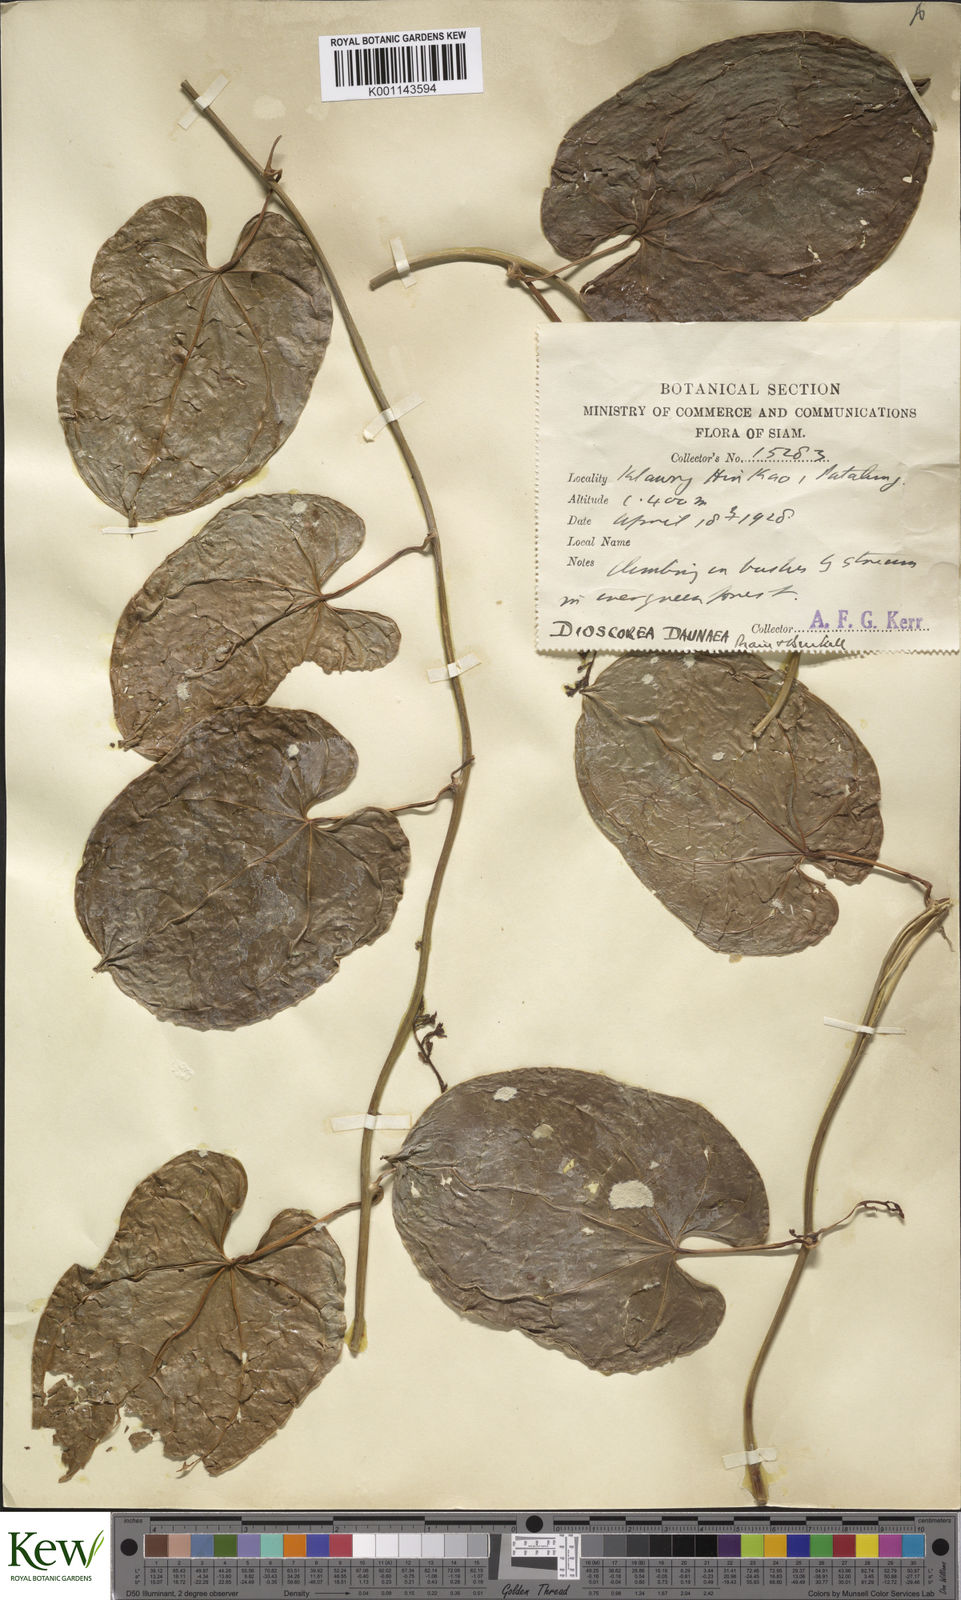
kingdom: Plantae
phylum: Tracheophyta
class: Liliopsida
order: Dioscoreales
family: Dioscoreaceae
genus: Dioscorea
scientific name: Dioscorea daunea
